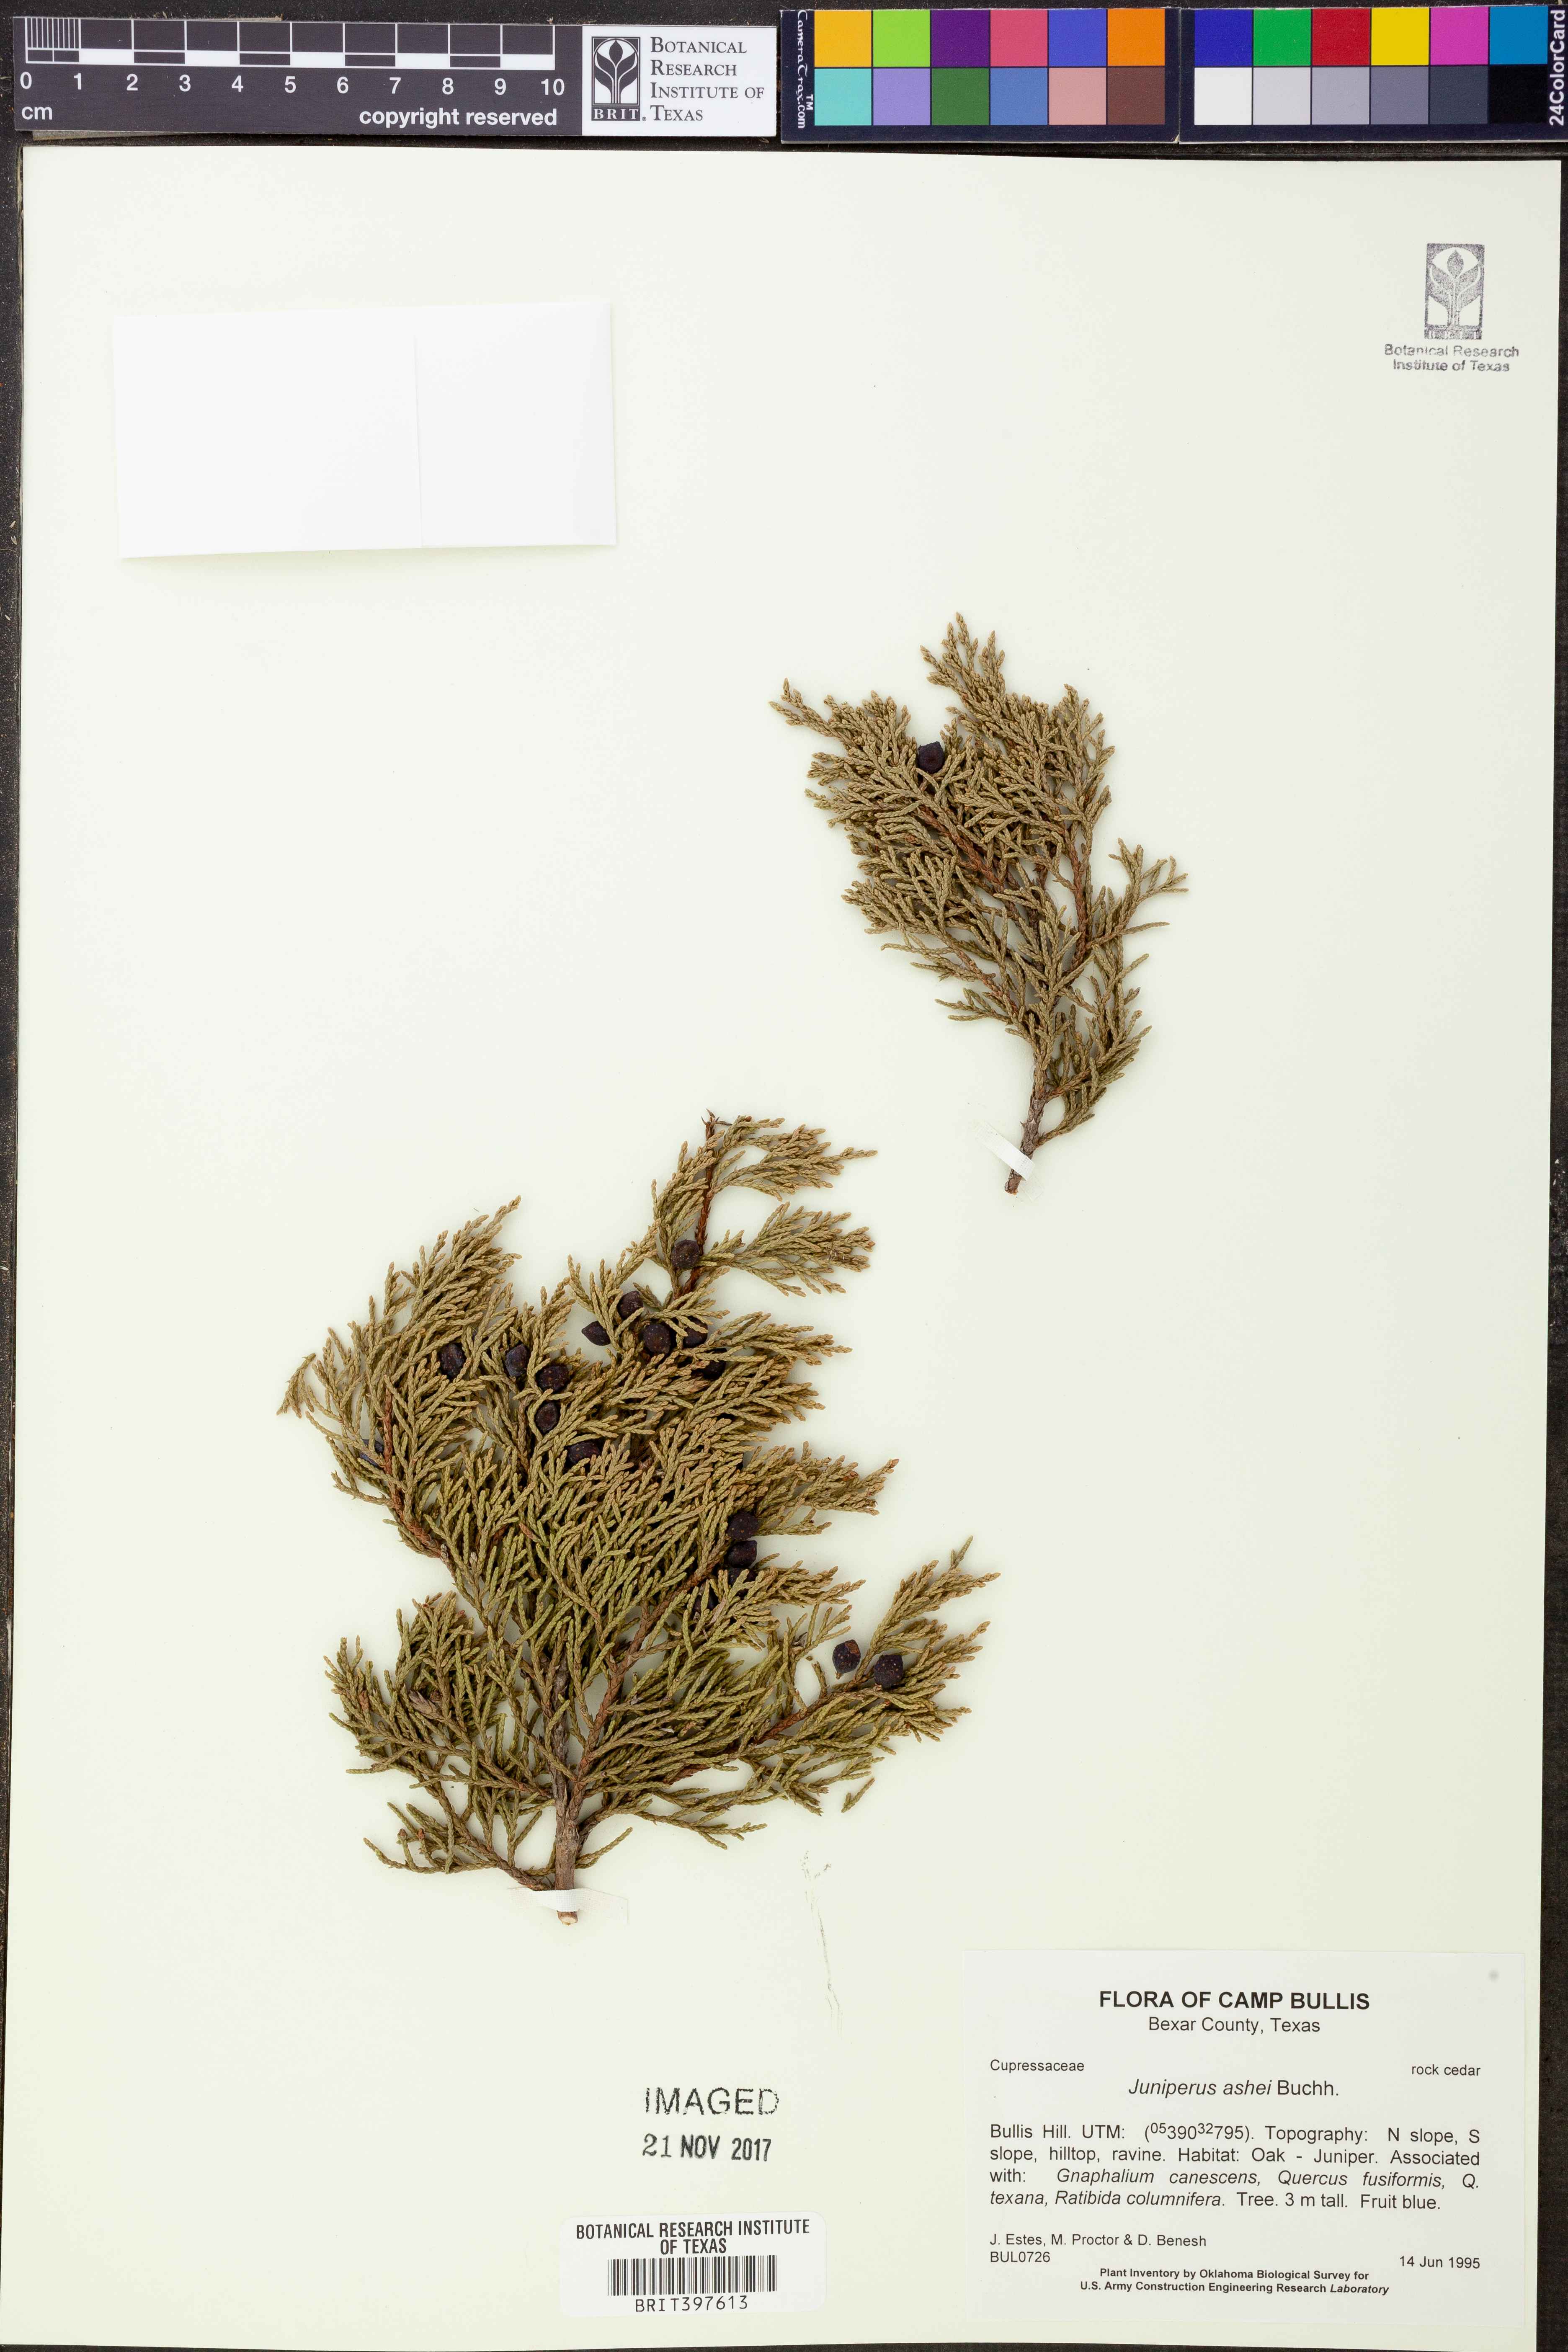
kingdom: Plantae
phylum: Tracheophyta
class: Pinopsida
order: Pinales
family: Cupressaceae
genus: Juniperus
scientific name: Juniperus ashei
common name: Mexican juniper
